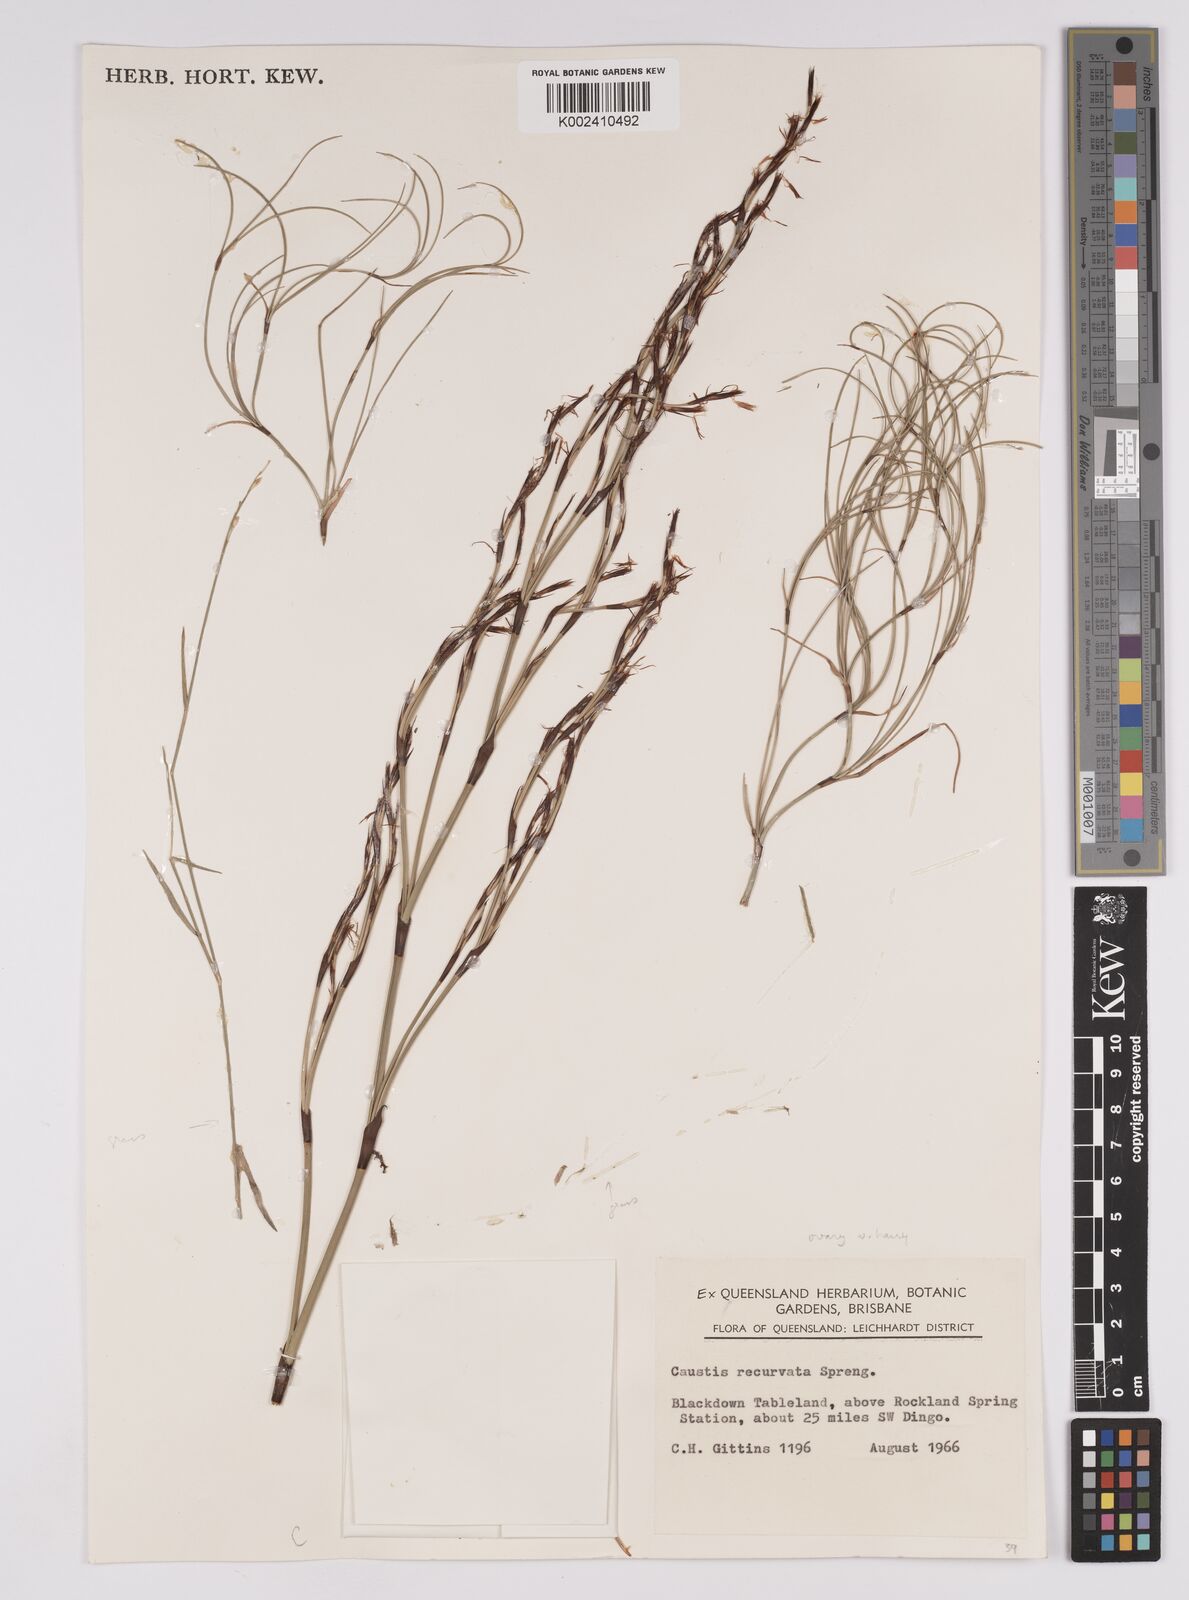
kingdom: Plantae
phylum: Tracheophyta
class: Liliopsida
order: Poales
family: Cyperaceae
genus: Caustis
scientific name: Caustis recurvata
